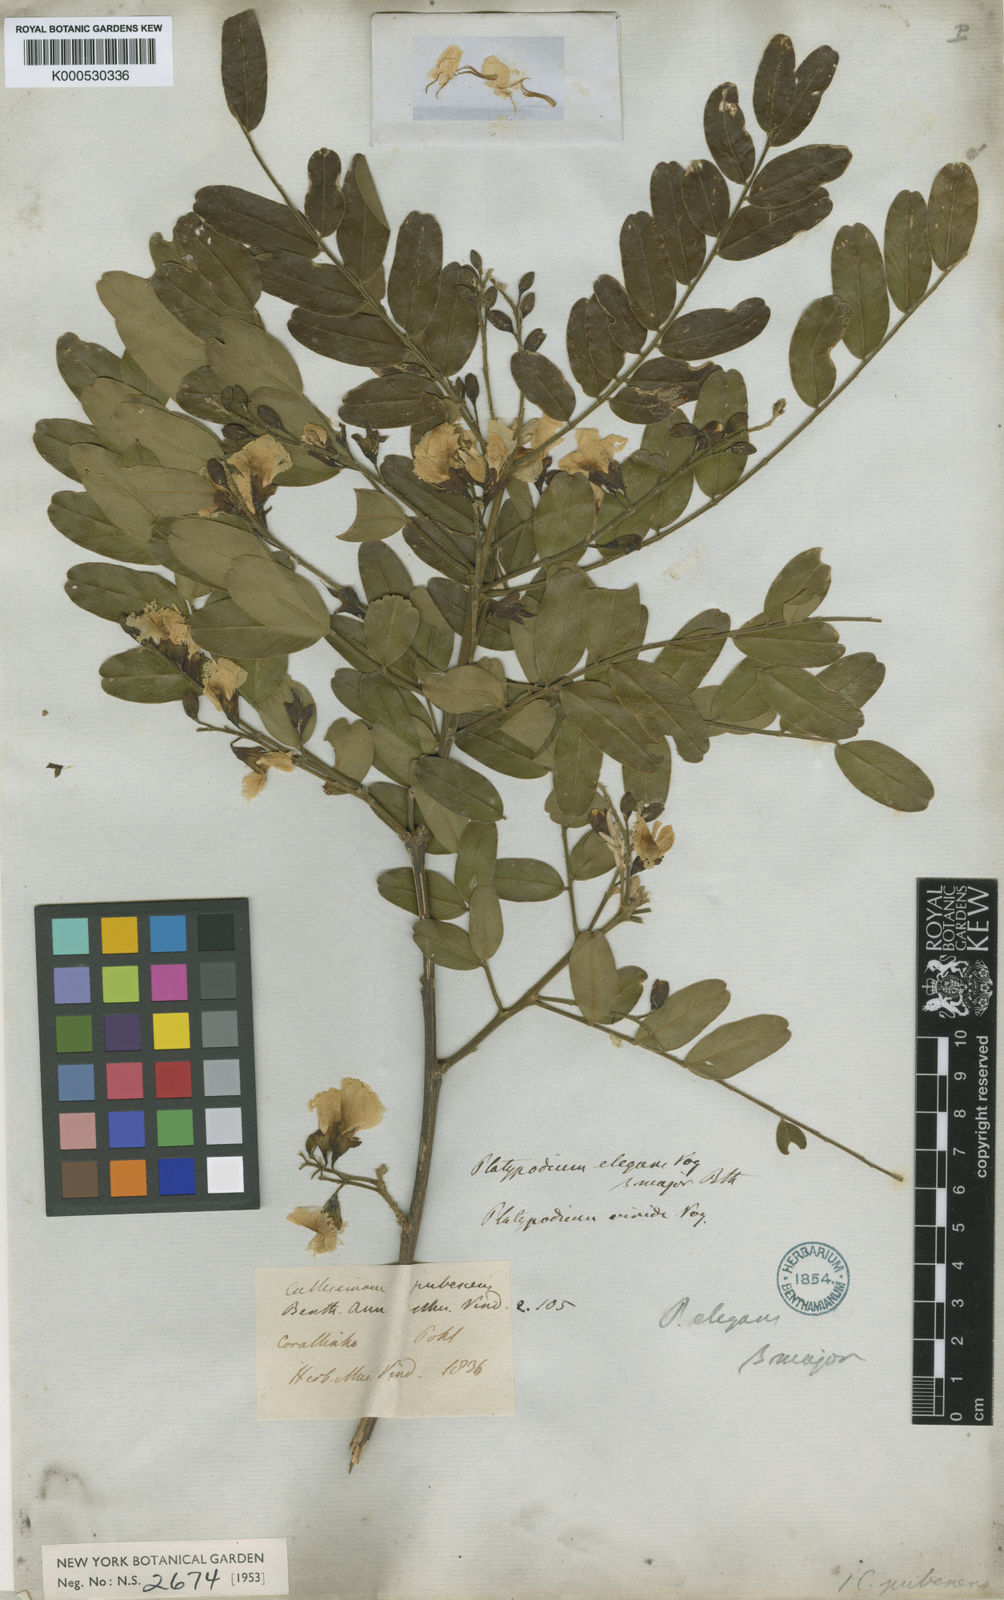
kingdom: Plantae
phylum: Tracheophyta
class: Magnoliopsida
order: Fabales
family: Fabaceae
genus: Platypodium
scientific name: Platypodium elegans
